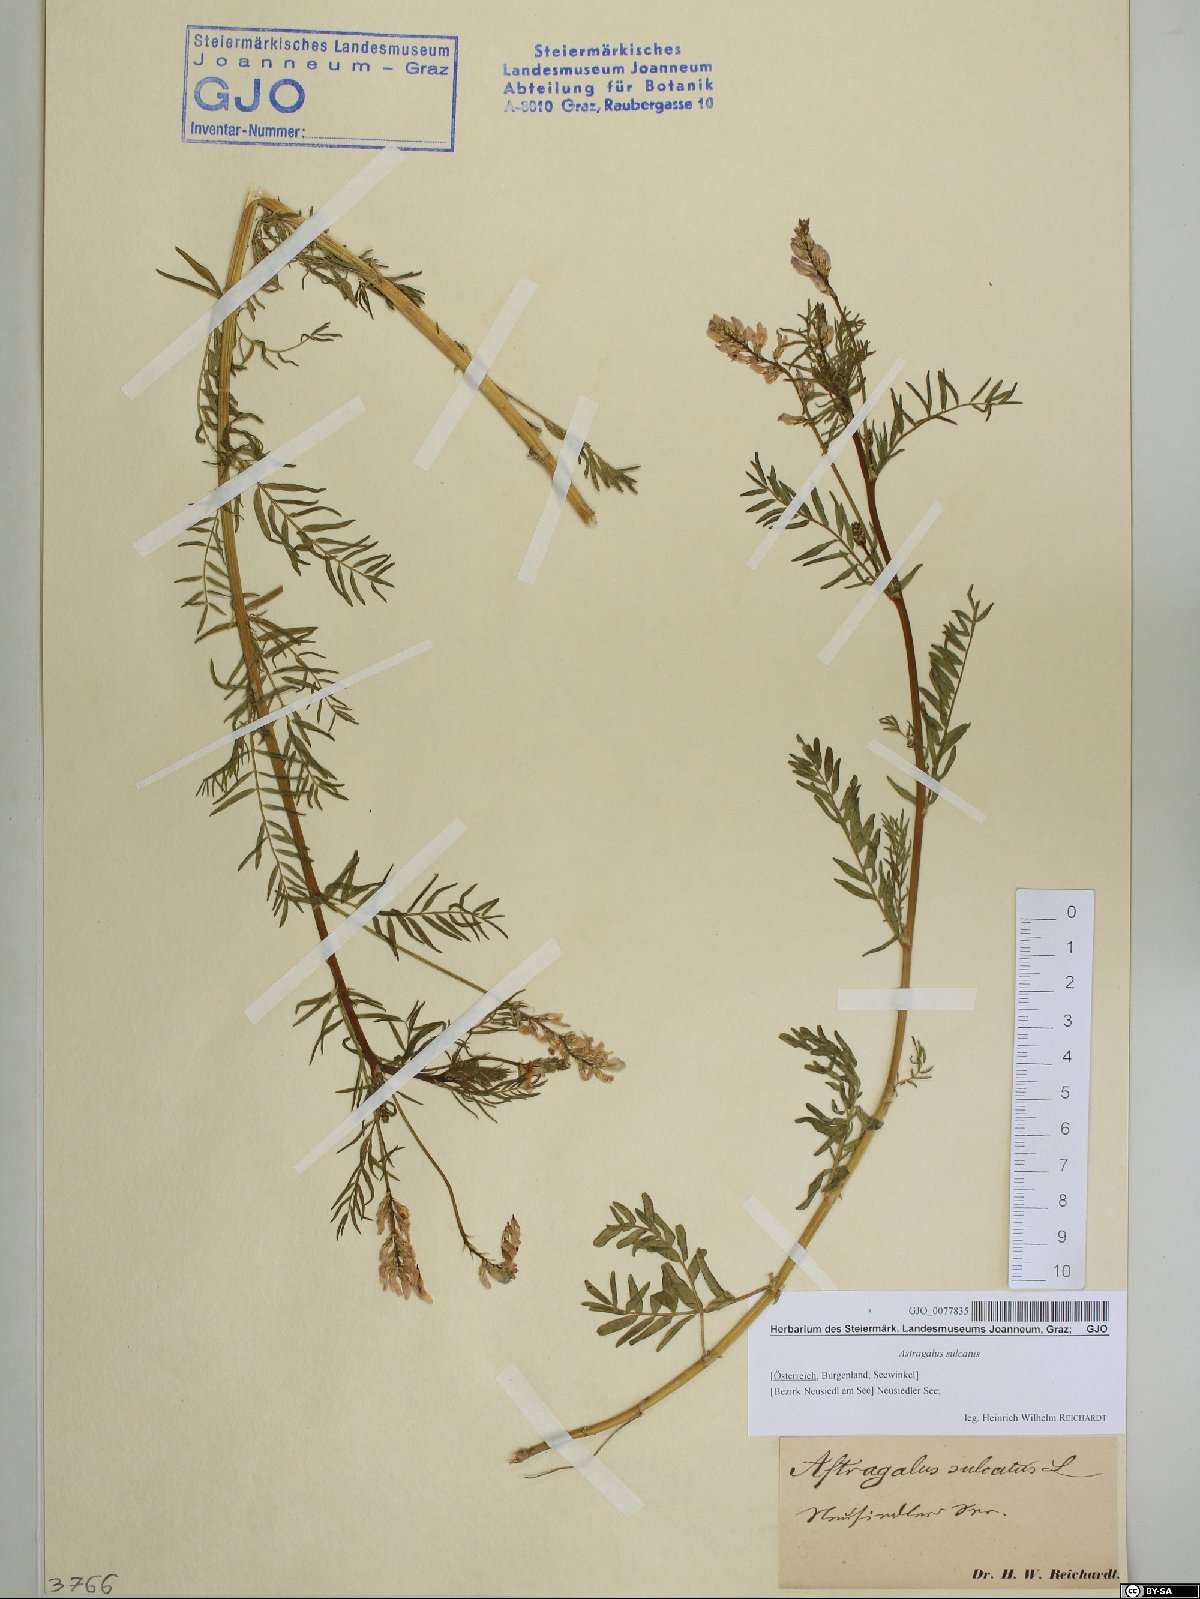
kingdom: Plantae
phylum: Tracheophyta
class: Magnoliopsida
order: Fabales
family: Fabaceae
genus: Astragalus
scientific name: Astragalus sulcatus
